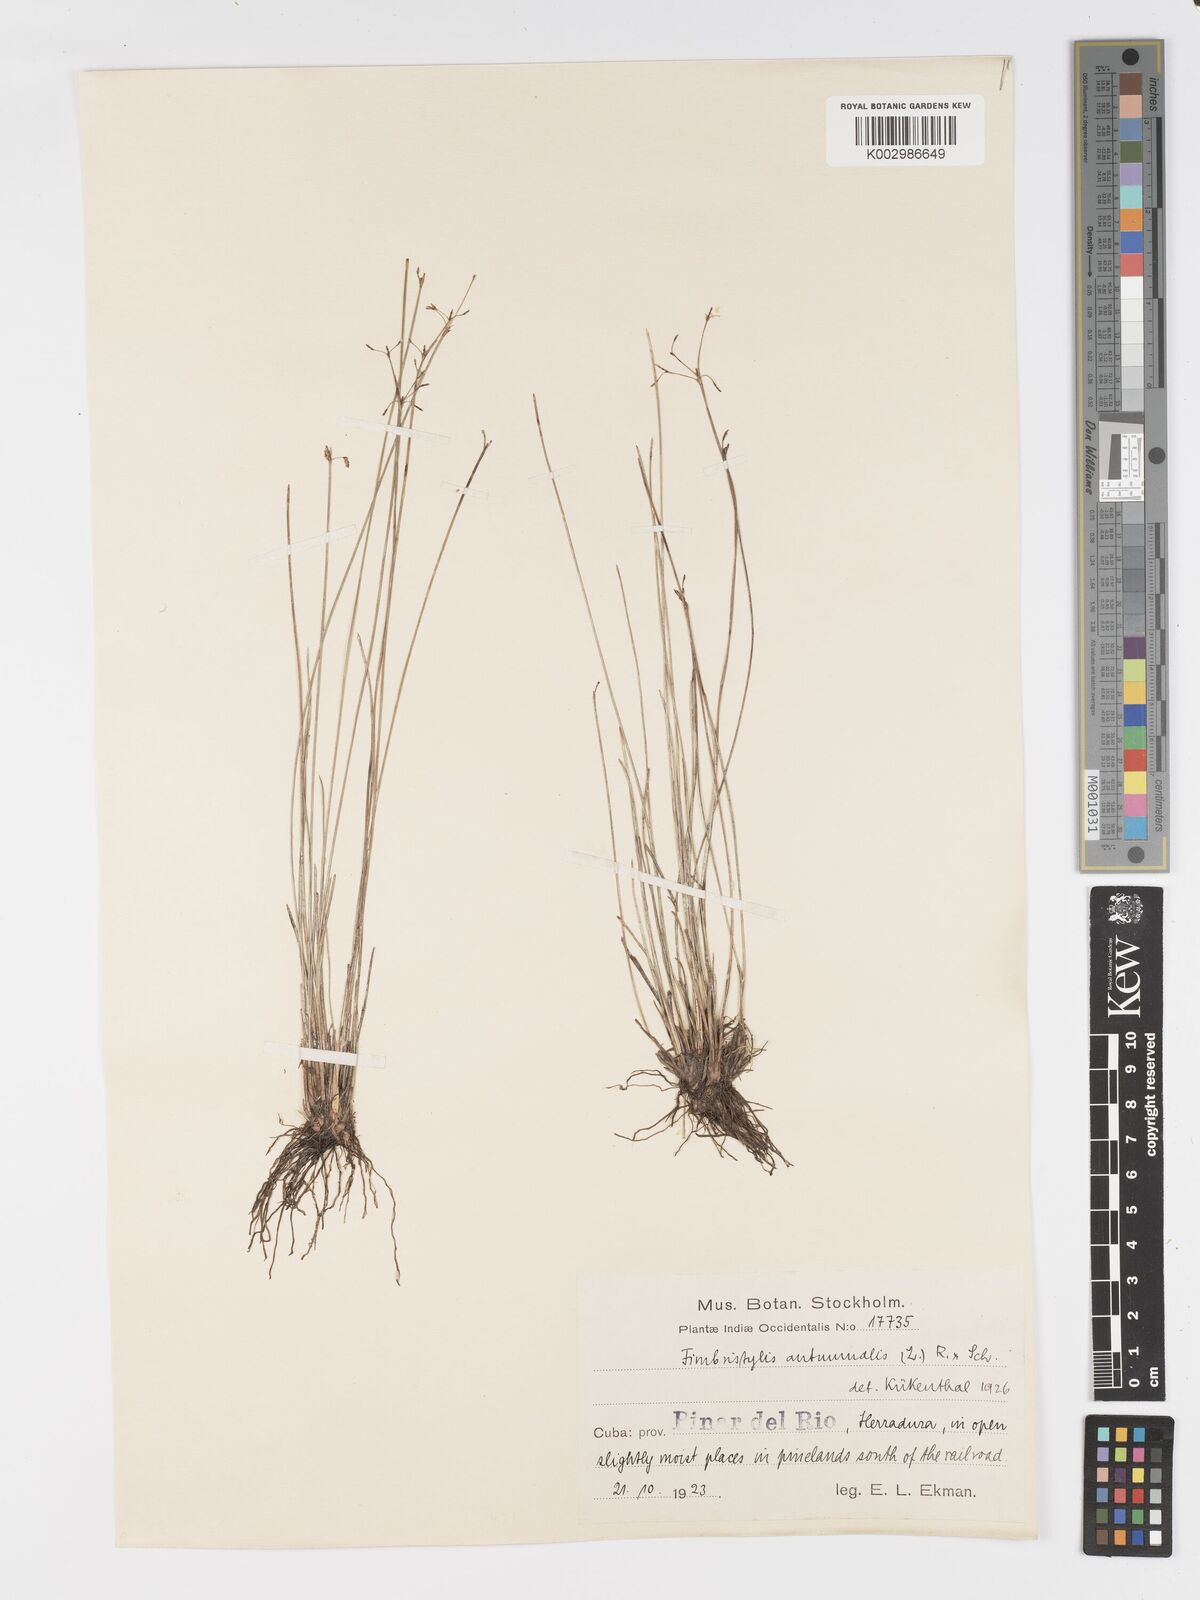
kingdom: Plantae
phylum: Tracheophyta
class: Liliopsida
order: Poales
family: Cyperaceae
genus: Fimbristylis
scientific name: Fimbristylis autumnalis
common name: Slender fimbristylis
